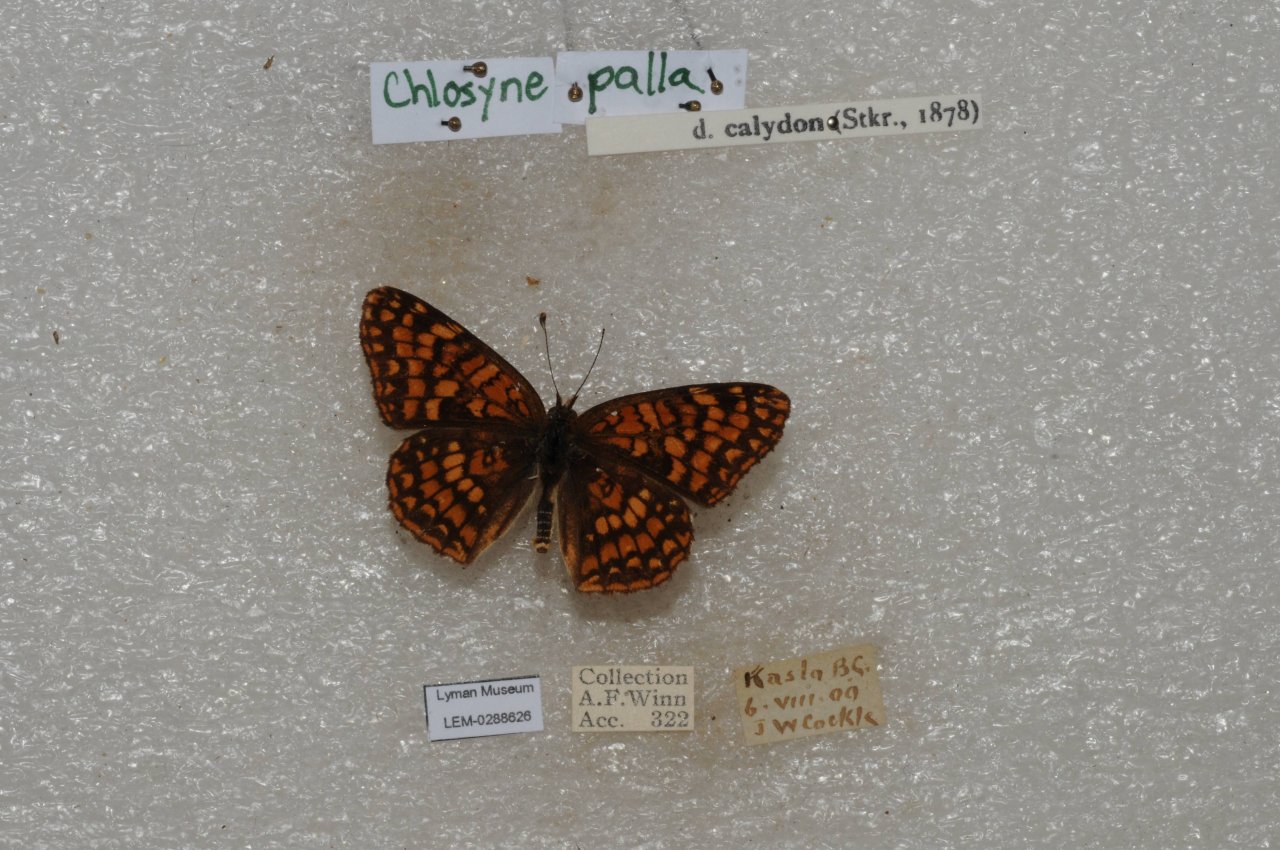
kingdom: Animalia
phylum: Arthropoda
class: Insecta
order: Lepidoptera
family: Nymphalidae
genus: Chlosyne
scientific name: Chlosyne palla
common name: Northern Checkerspot
